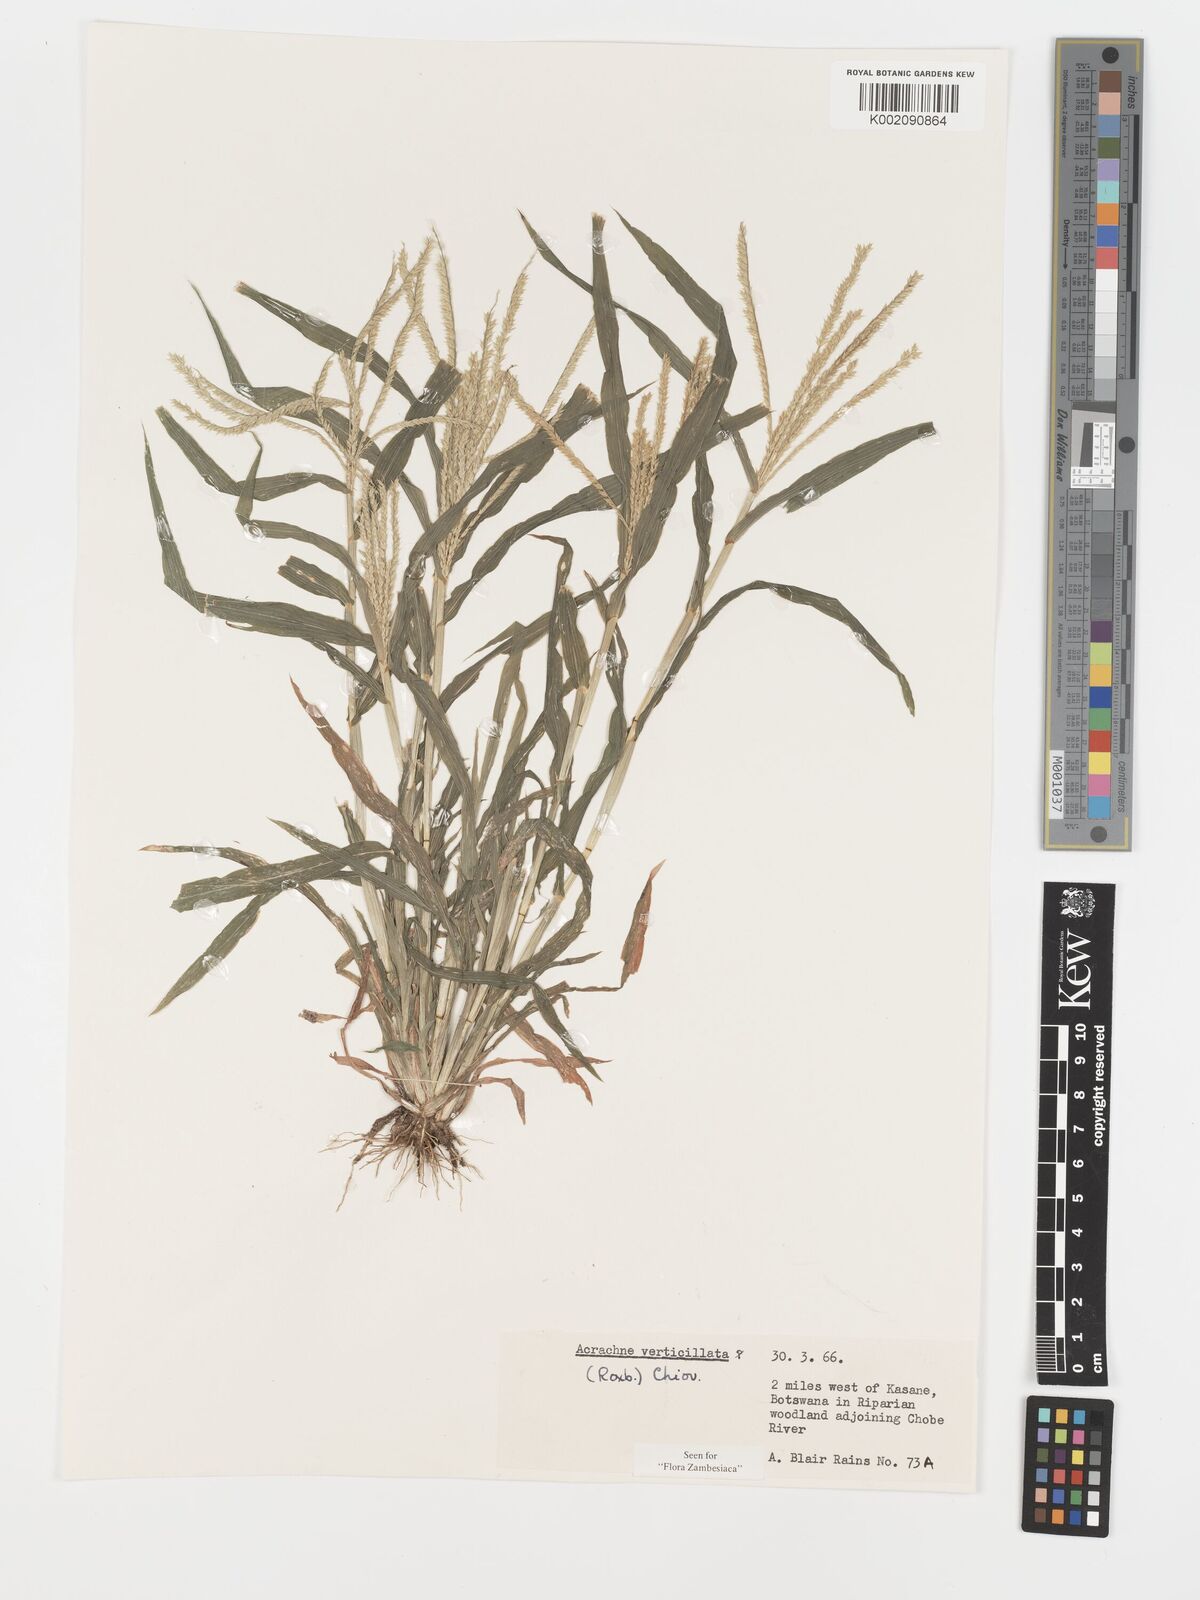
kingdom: Plantae
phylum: Tracheophyta
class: Liliopsida
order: Poales
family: Poaceae
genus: Acrachne
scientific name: Acrachne racemosa
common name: Goosegrass
